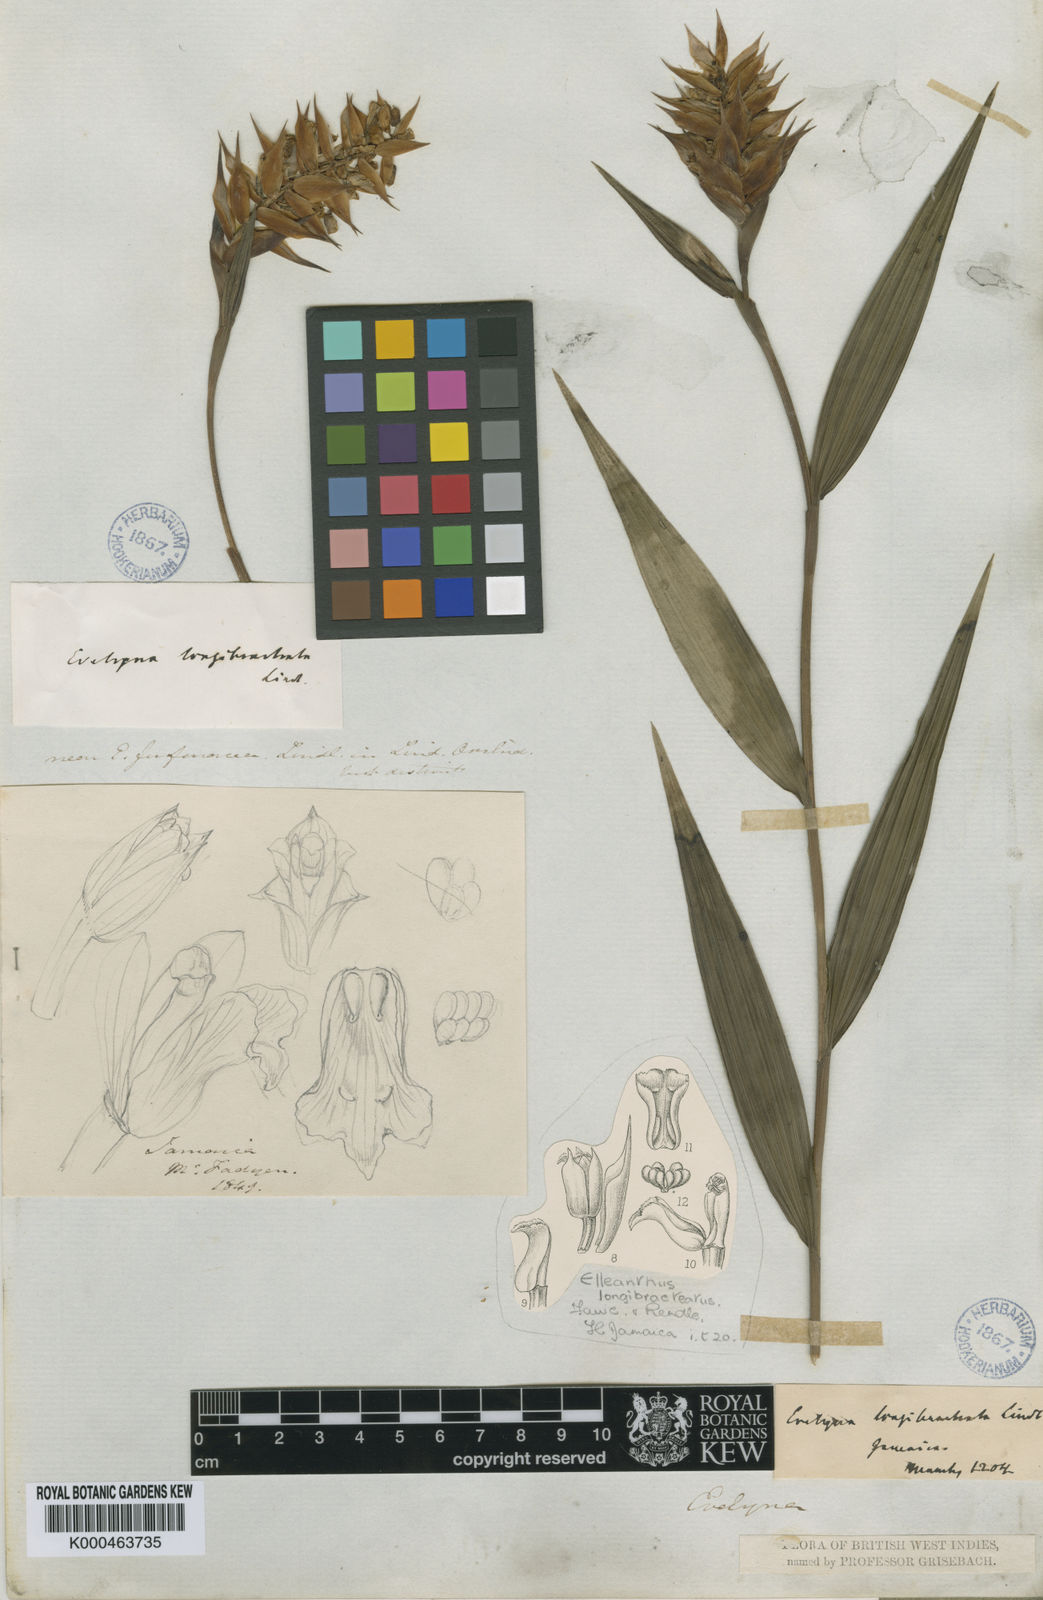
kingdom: Plantae
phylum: Tracheophyta
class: Liliopsida
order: Asparagales
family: Orchidaceae
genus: Elleanthus
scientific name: Elleanthus longibracteatus
